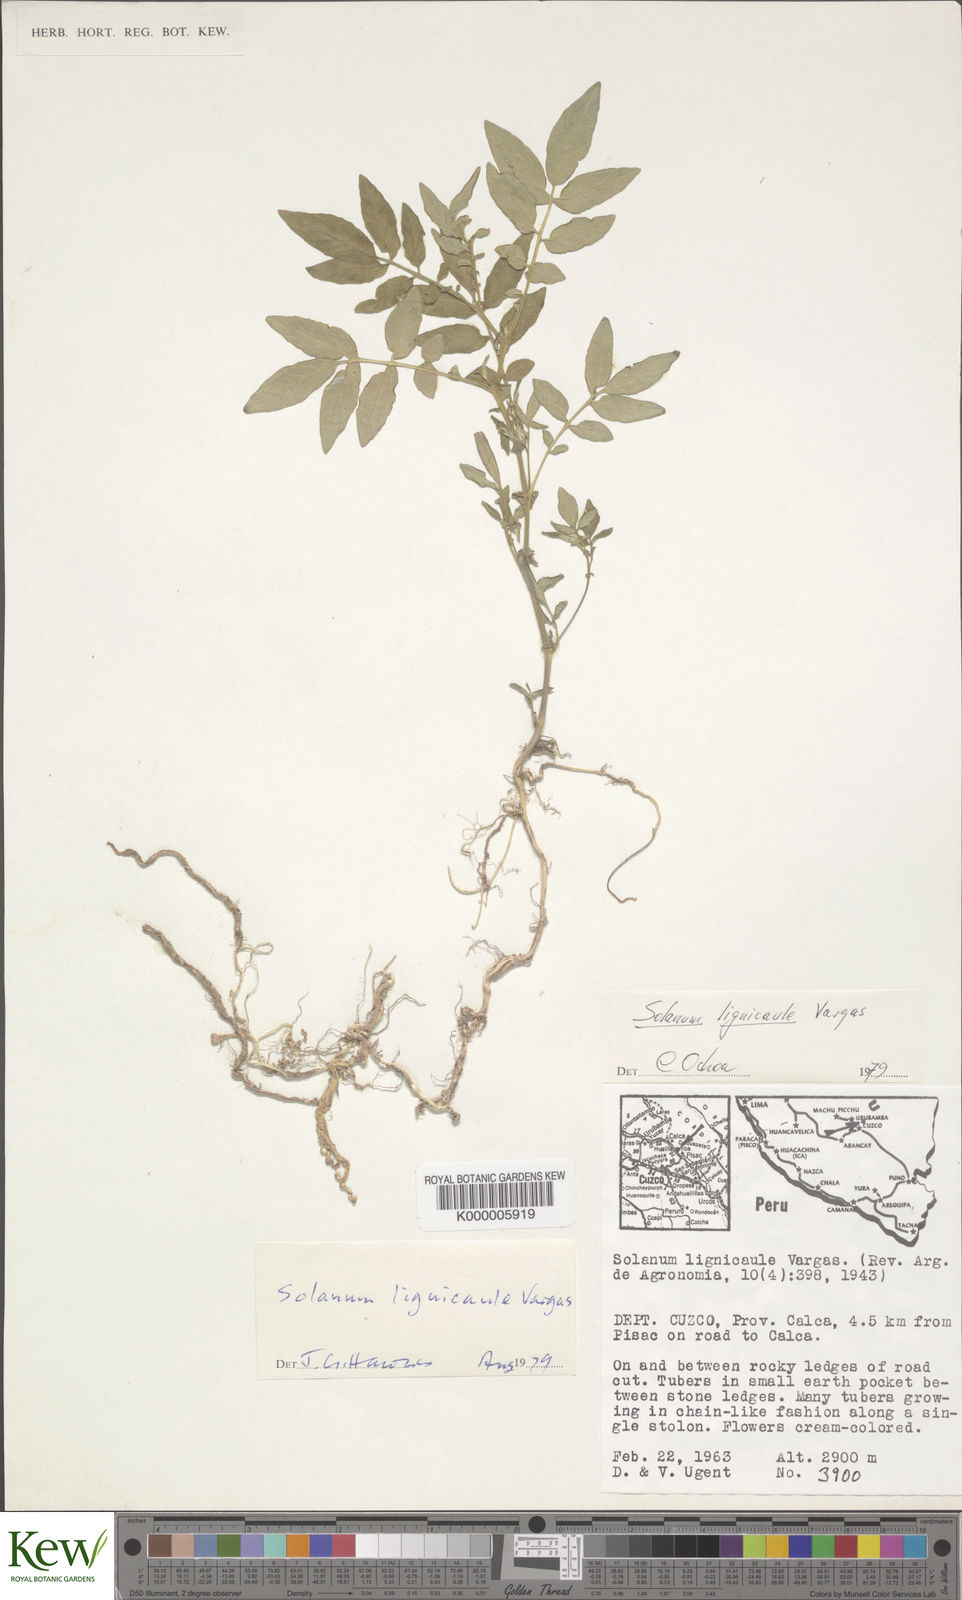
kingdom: Plantae
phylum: Tracheophyta
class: Magnoliopsida
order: Solanales
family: Solanaceae
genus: Solanum
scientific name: Solanum lignicaule
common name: Fox potato
